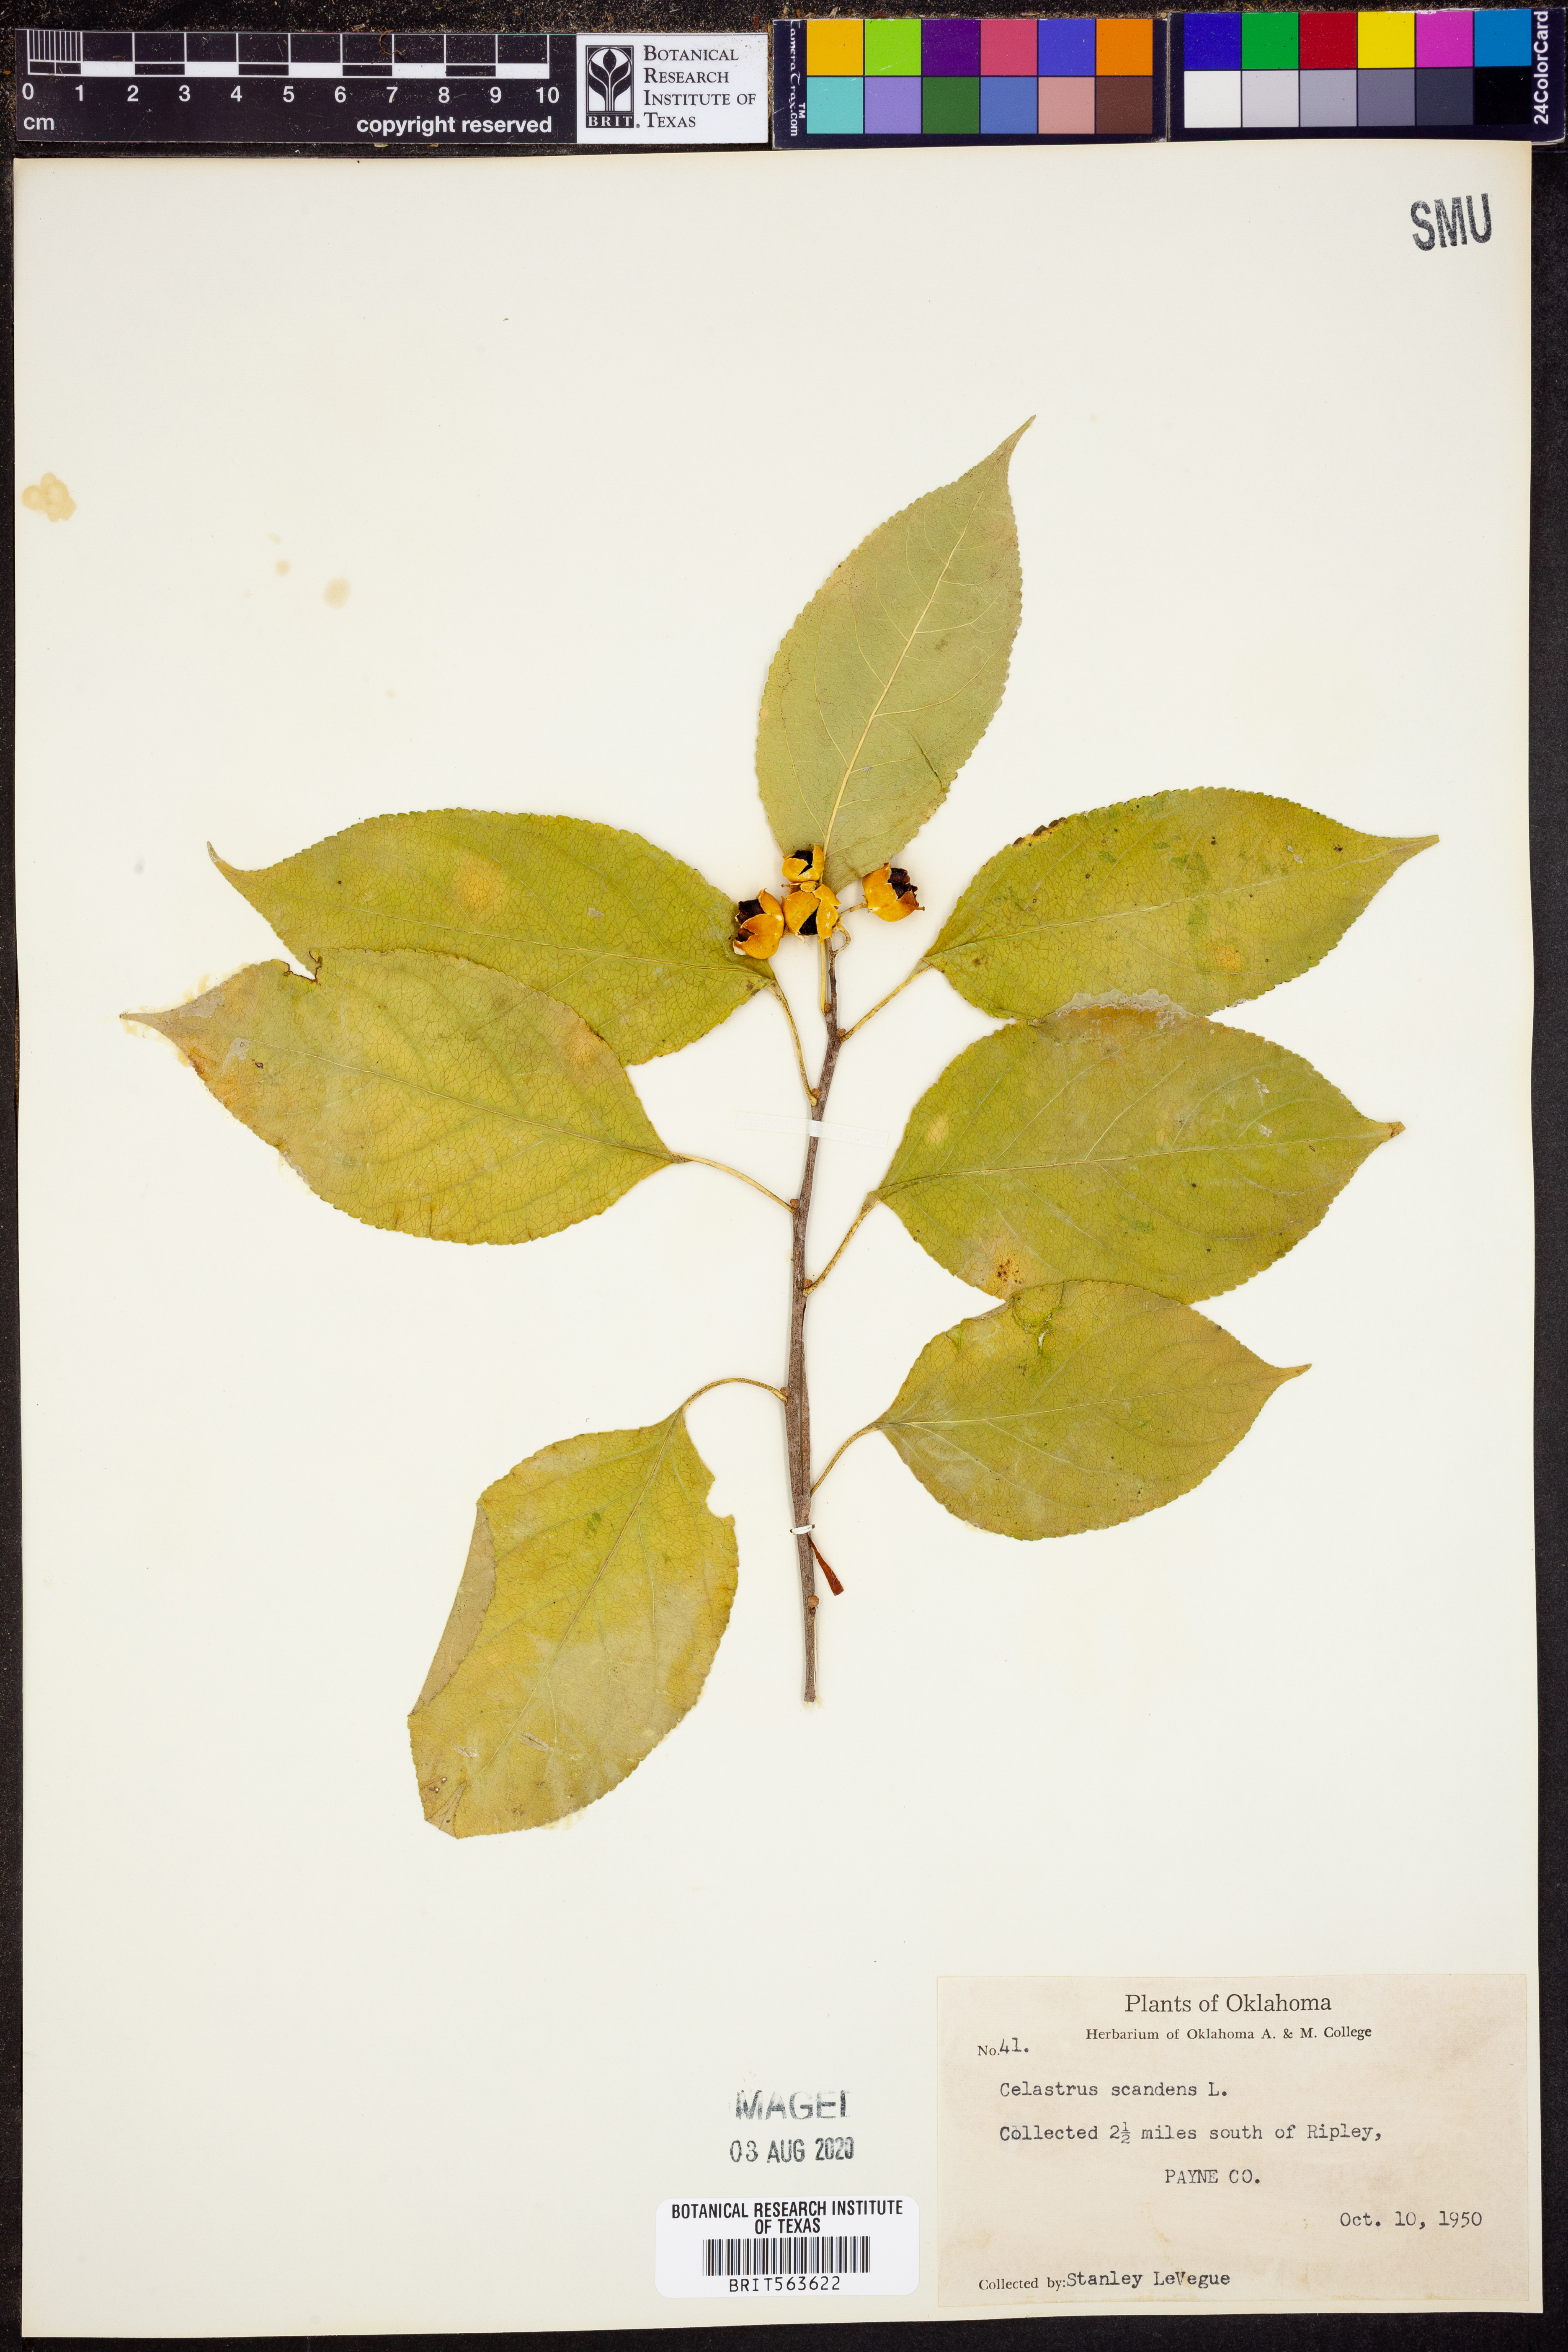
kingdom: Plantae
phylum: Tracheophyta
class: Magnoliopsida
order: Celastrales
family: Celastraceae
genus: Celastrus
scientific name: Celastrus scandens
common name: American bittersweet
